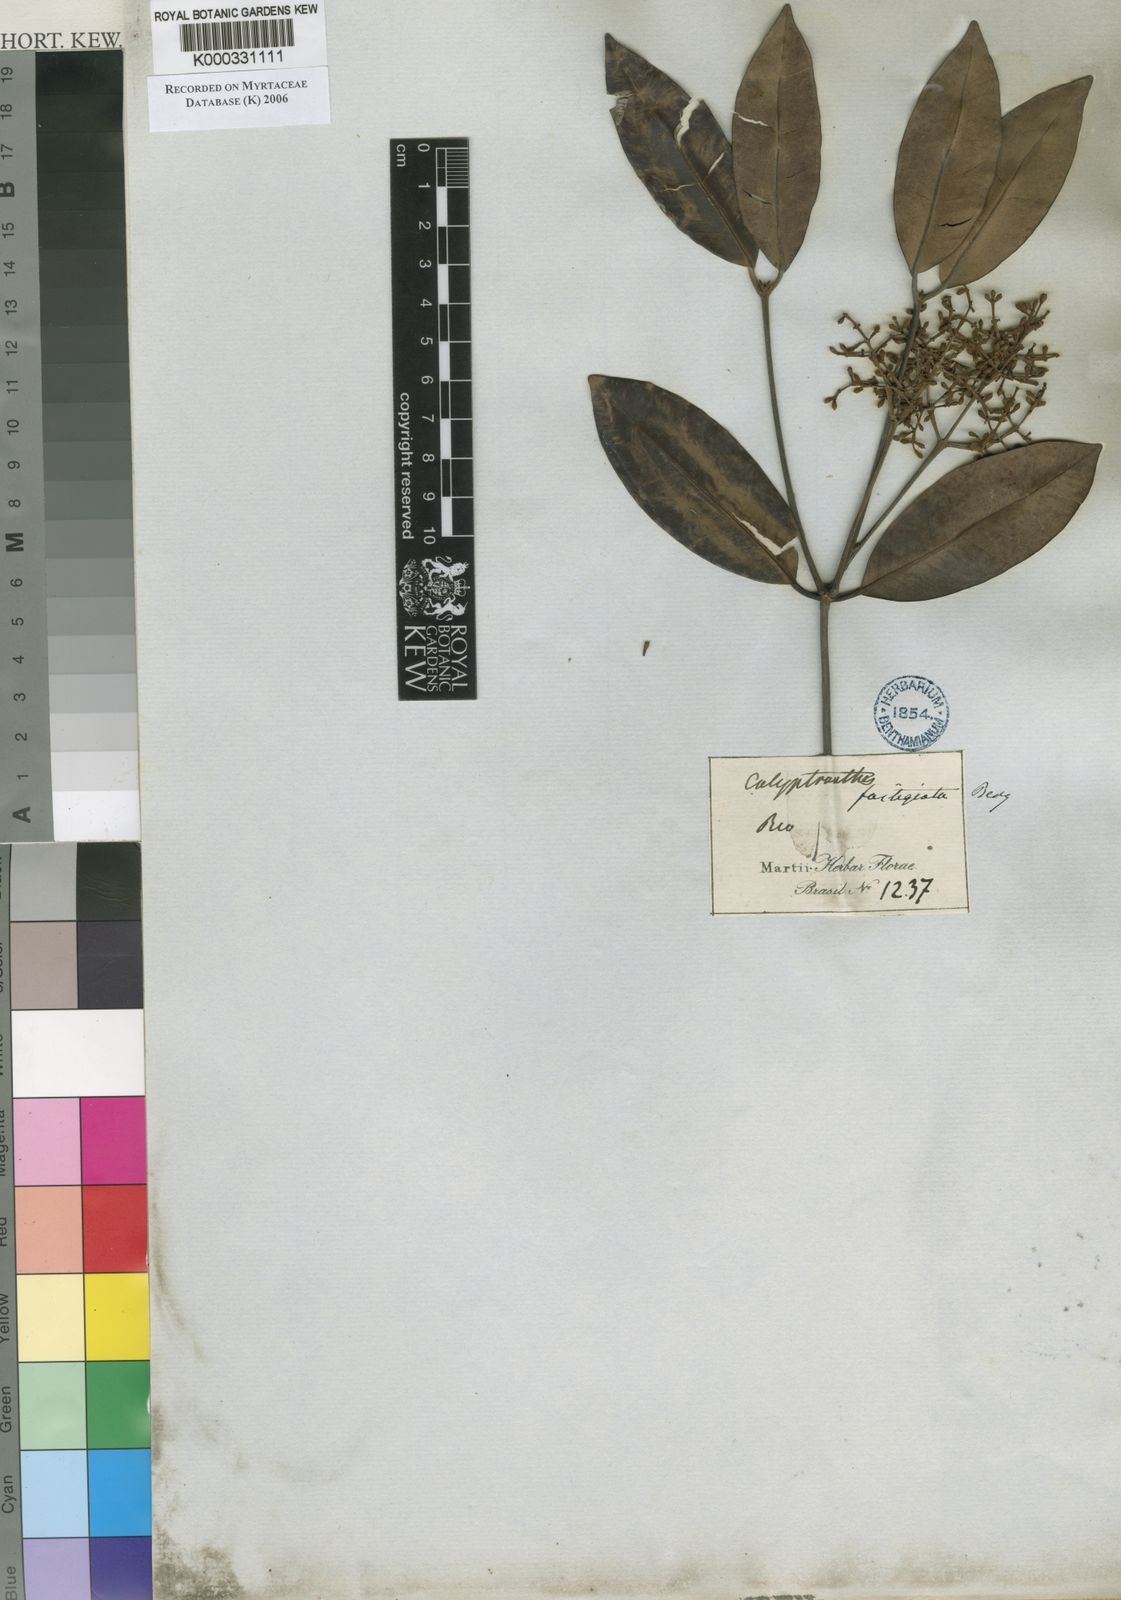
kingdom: Plantae
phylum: Tracheophyta
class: Magnoliopsida
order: Myrtales
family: Myrtaceae
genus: Myrcia
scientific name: Myrcia loranthifolia
